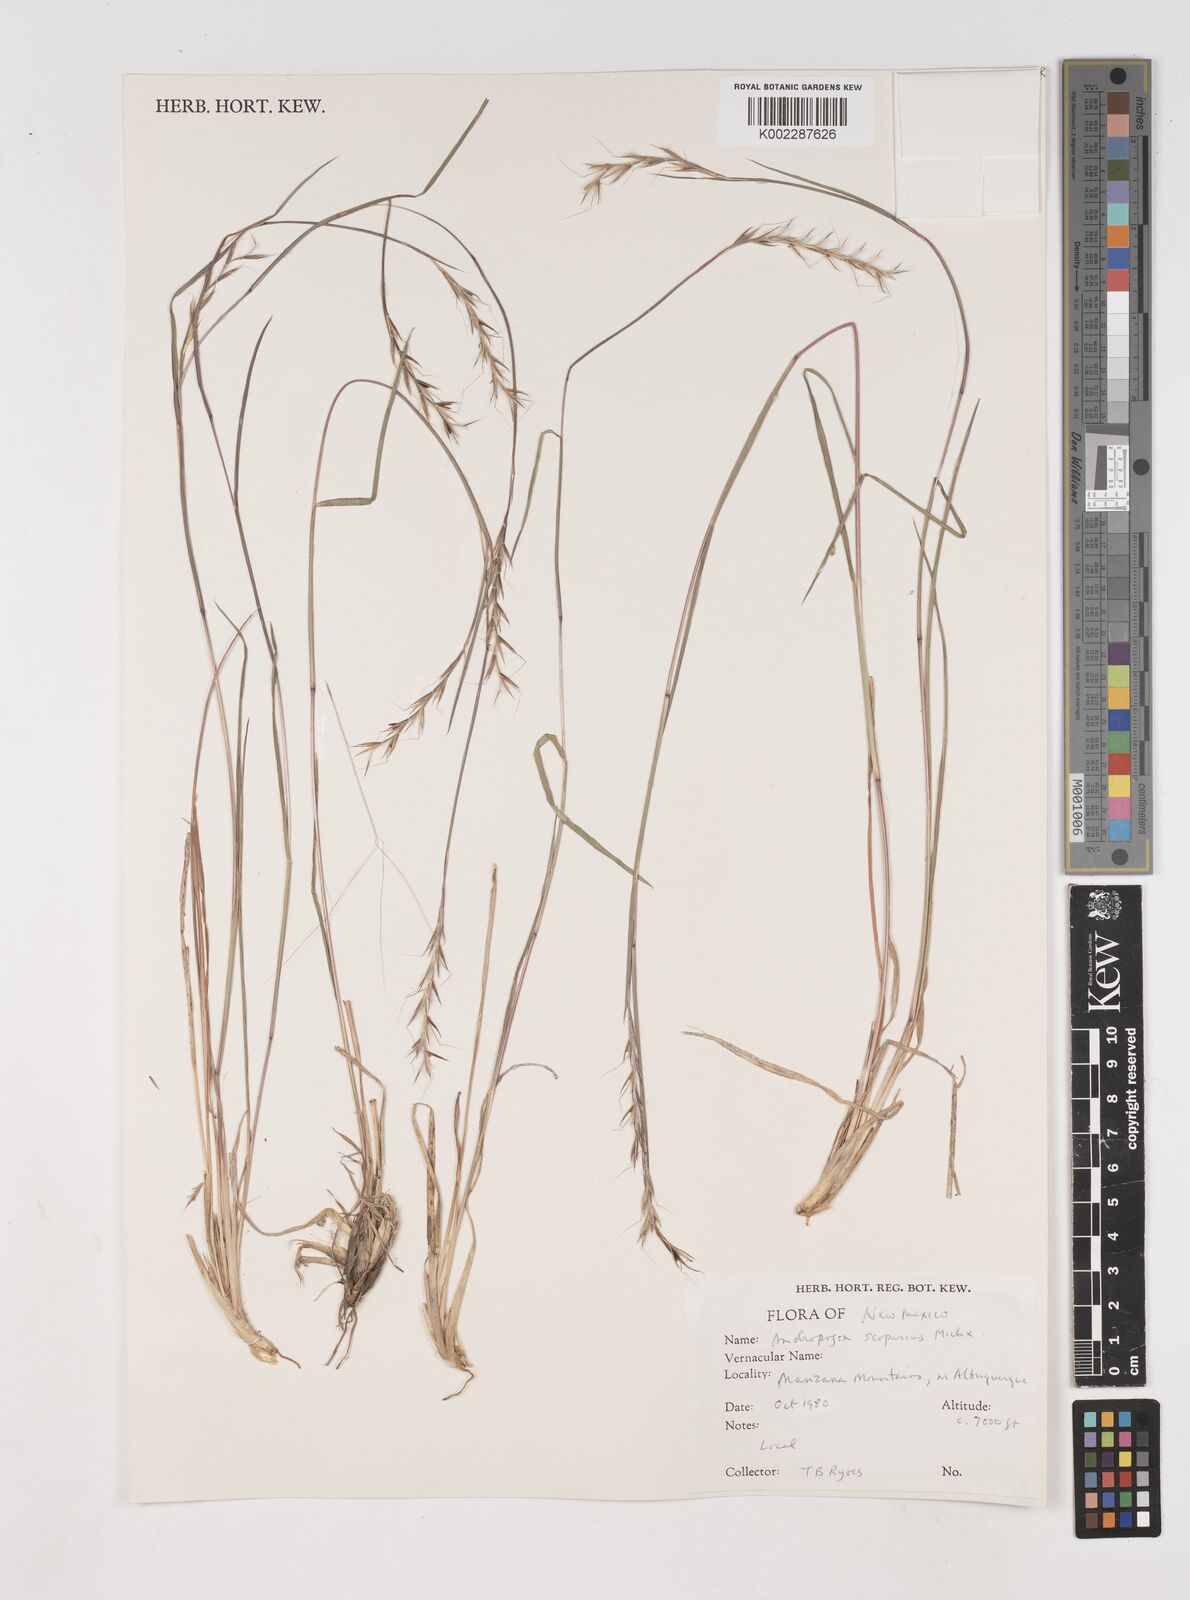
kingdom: Plantae
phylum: Tracheophyta
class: Liliopsida
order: Poales
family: Poaceae
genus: Schizachyrium
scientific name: Schizachyrium scoparium
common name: Little bluestem
